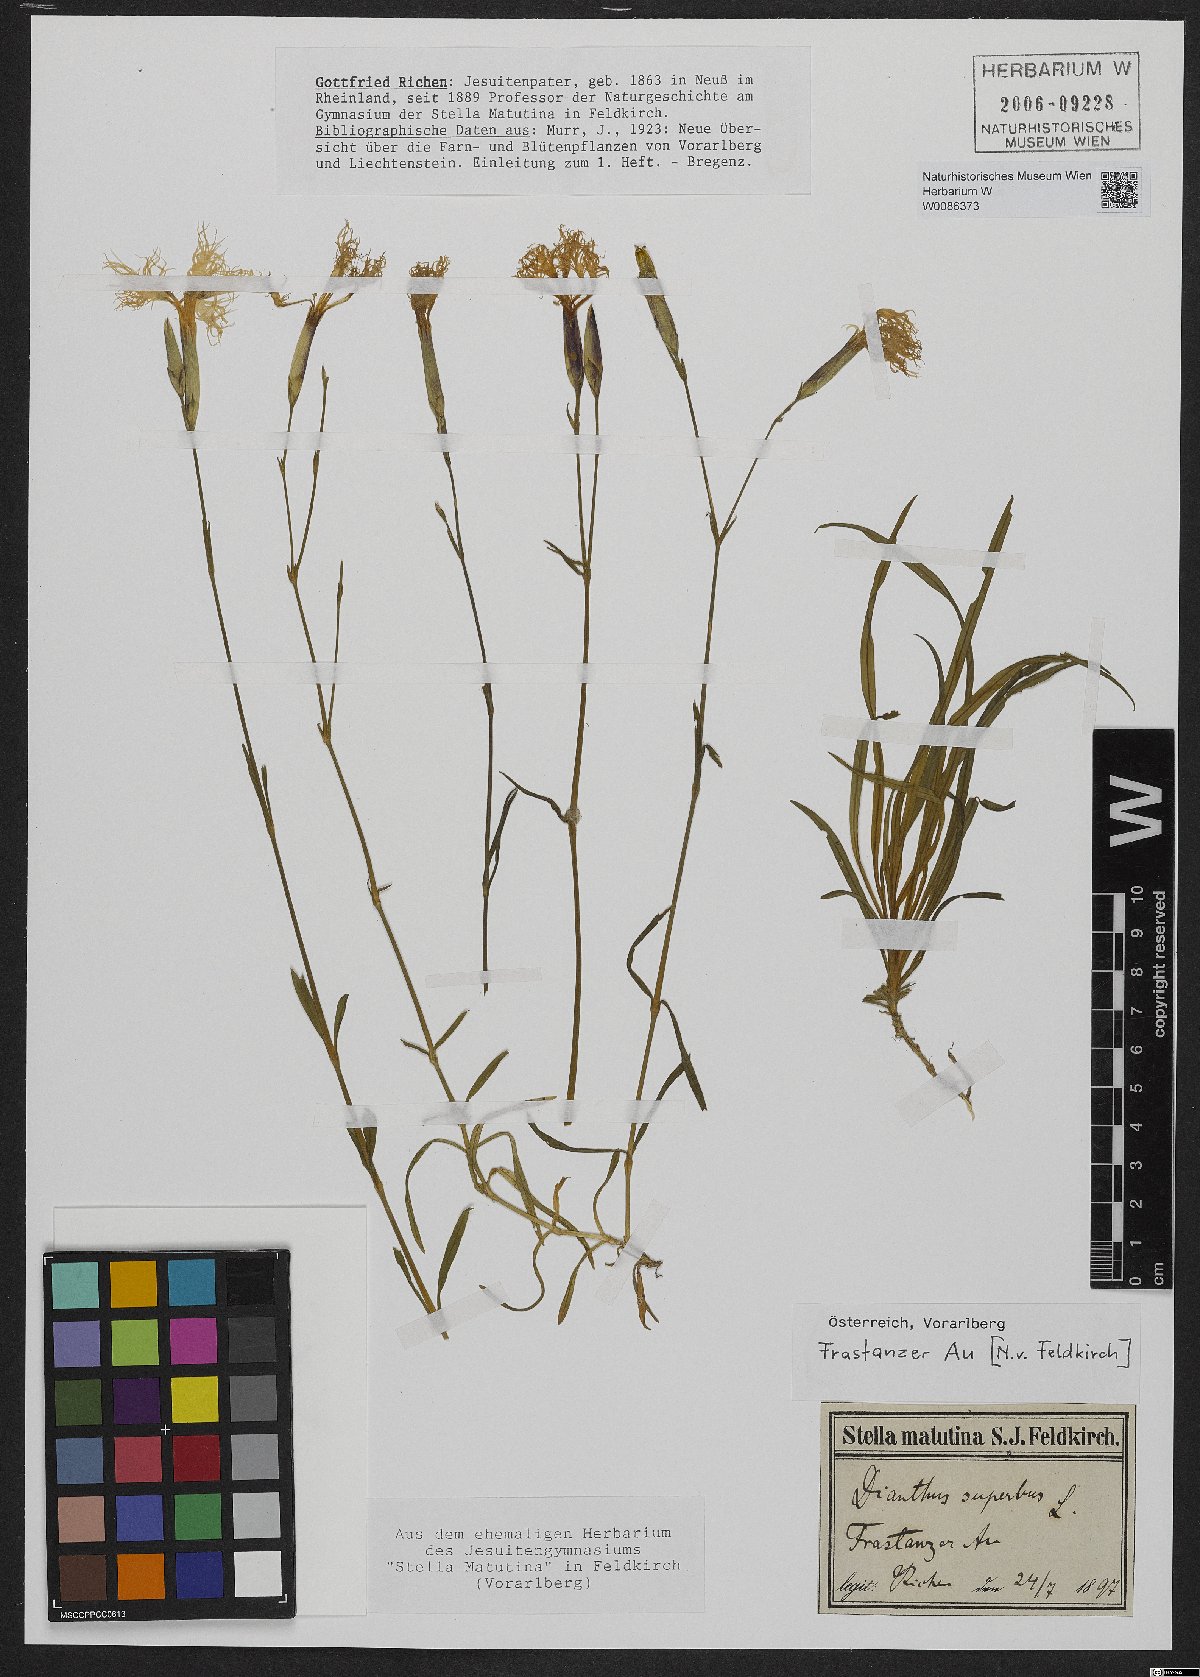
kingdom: Plantae
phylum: Tracheophyta
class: Magnoliopsida
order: Caryophyllales
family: Caryophyllaceae
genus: Dianthus
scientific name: Dianthus superbus
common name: Fringed pink
